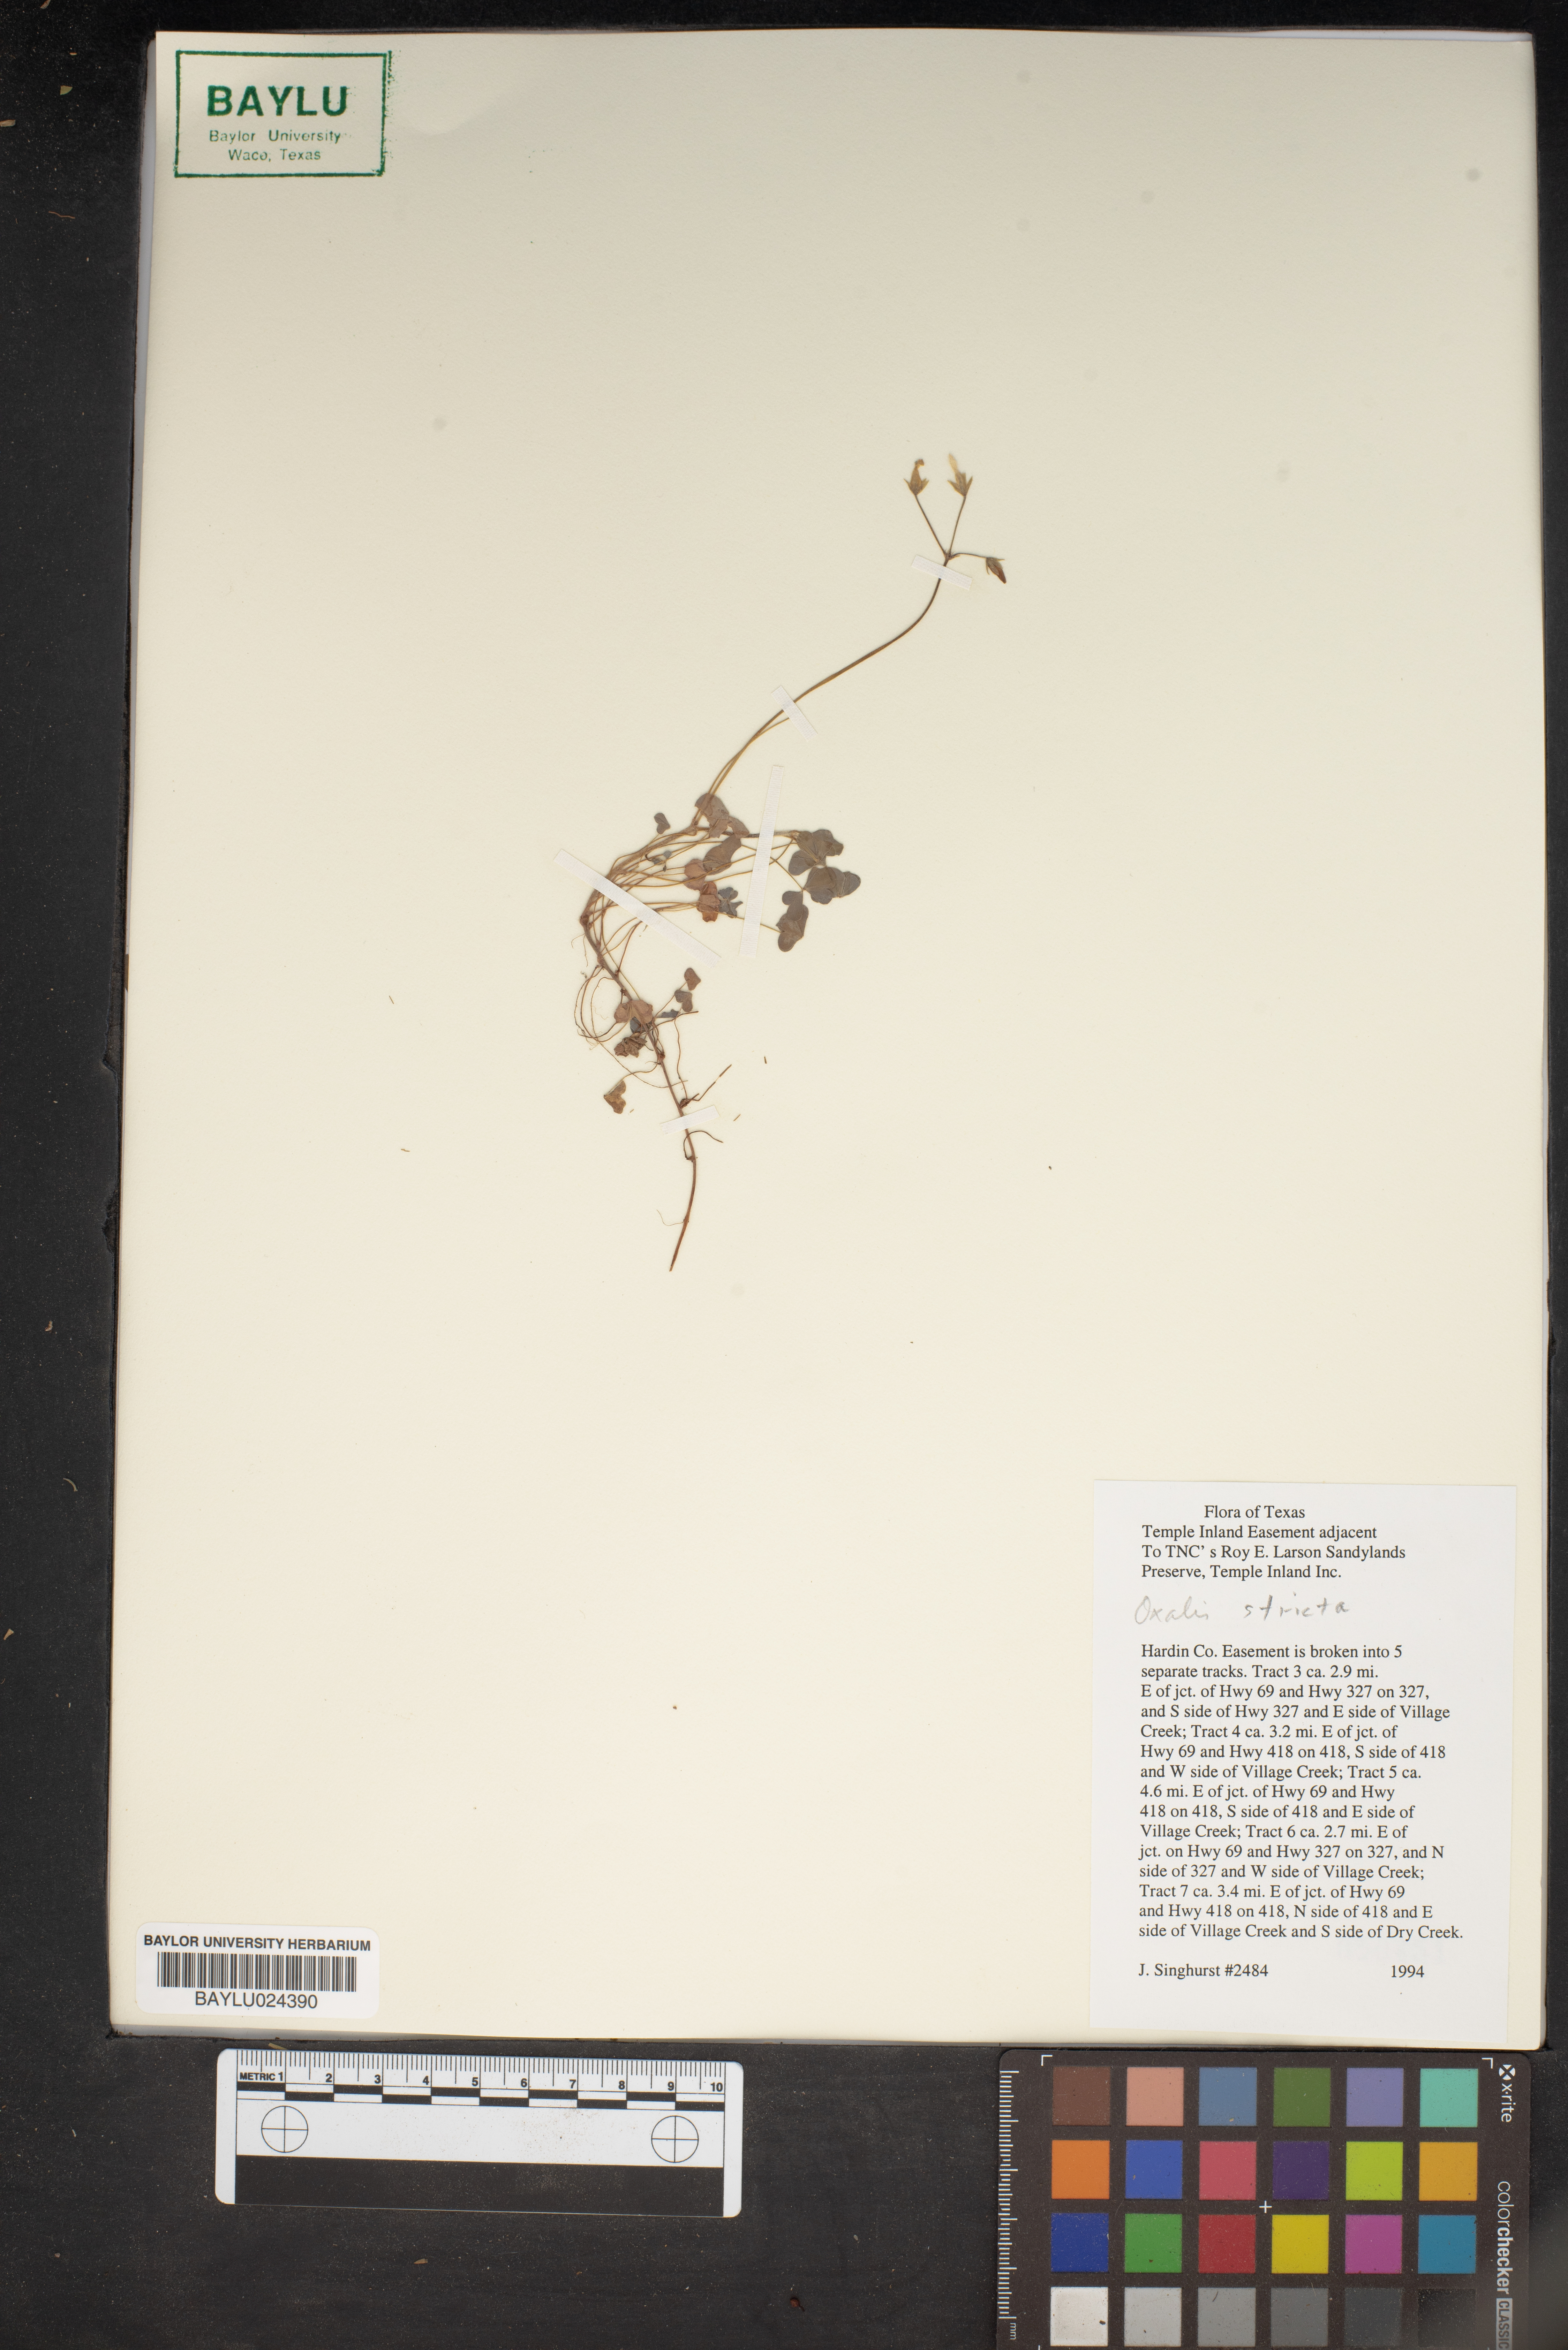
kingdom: Plantae
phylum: Tracheophyta
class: Magnoliopsida
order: Oxalidales
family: Oxalidaceae
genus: Oxalis
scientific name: Oxalis stricta
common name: Upright yellow-sorrel
